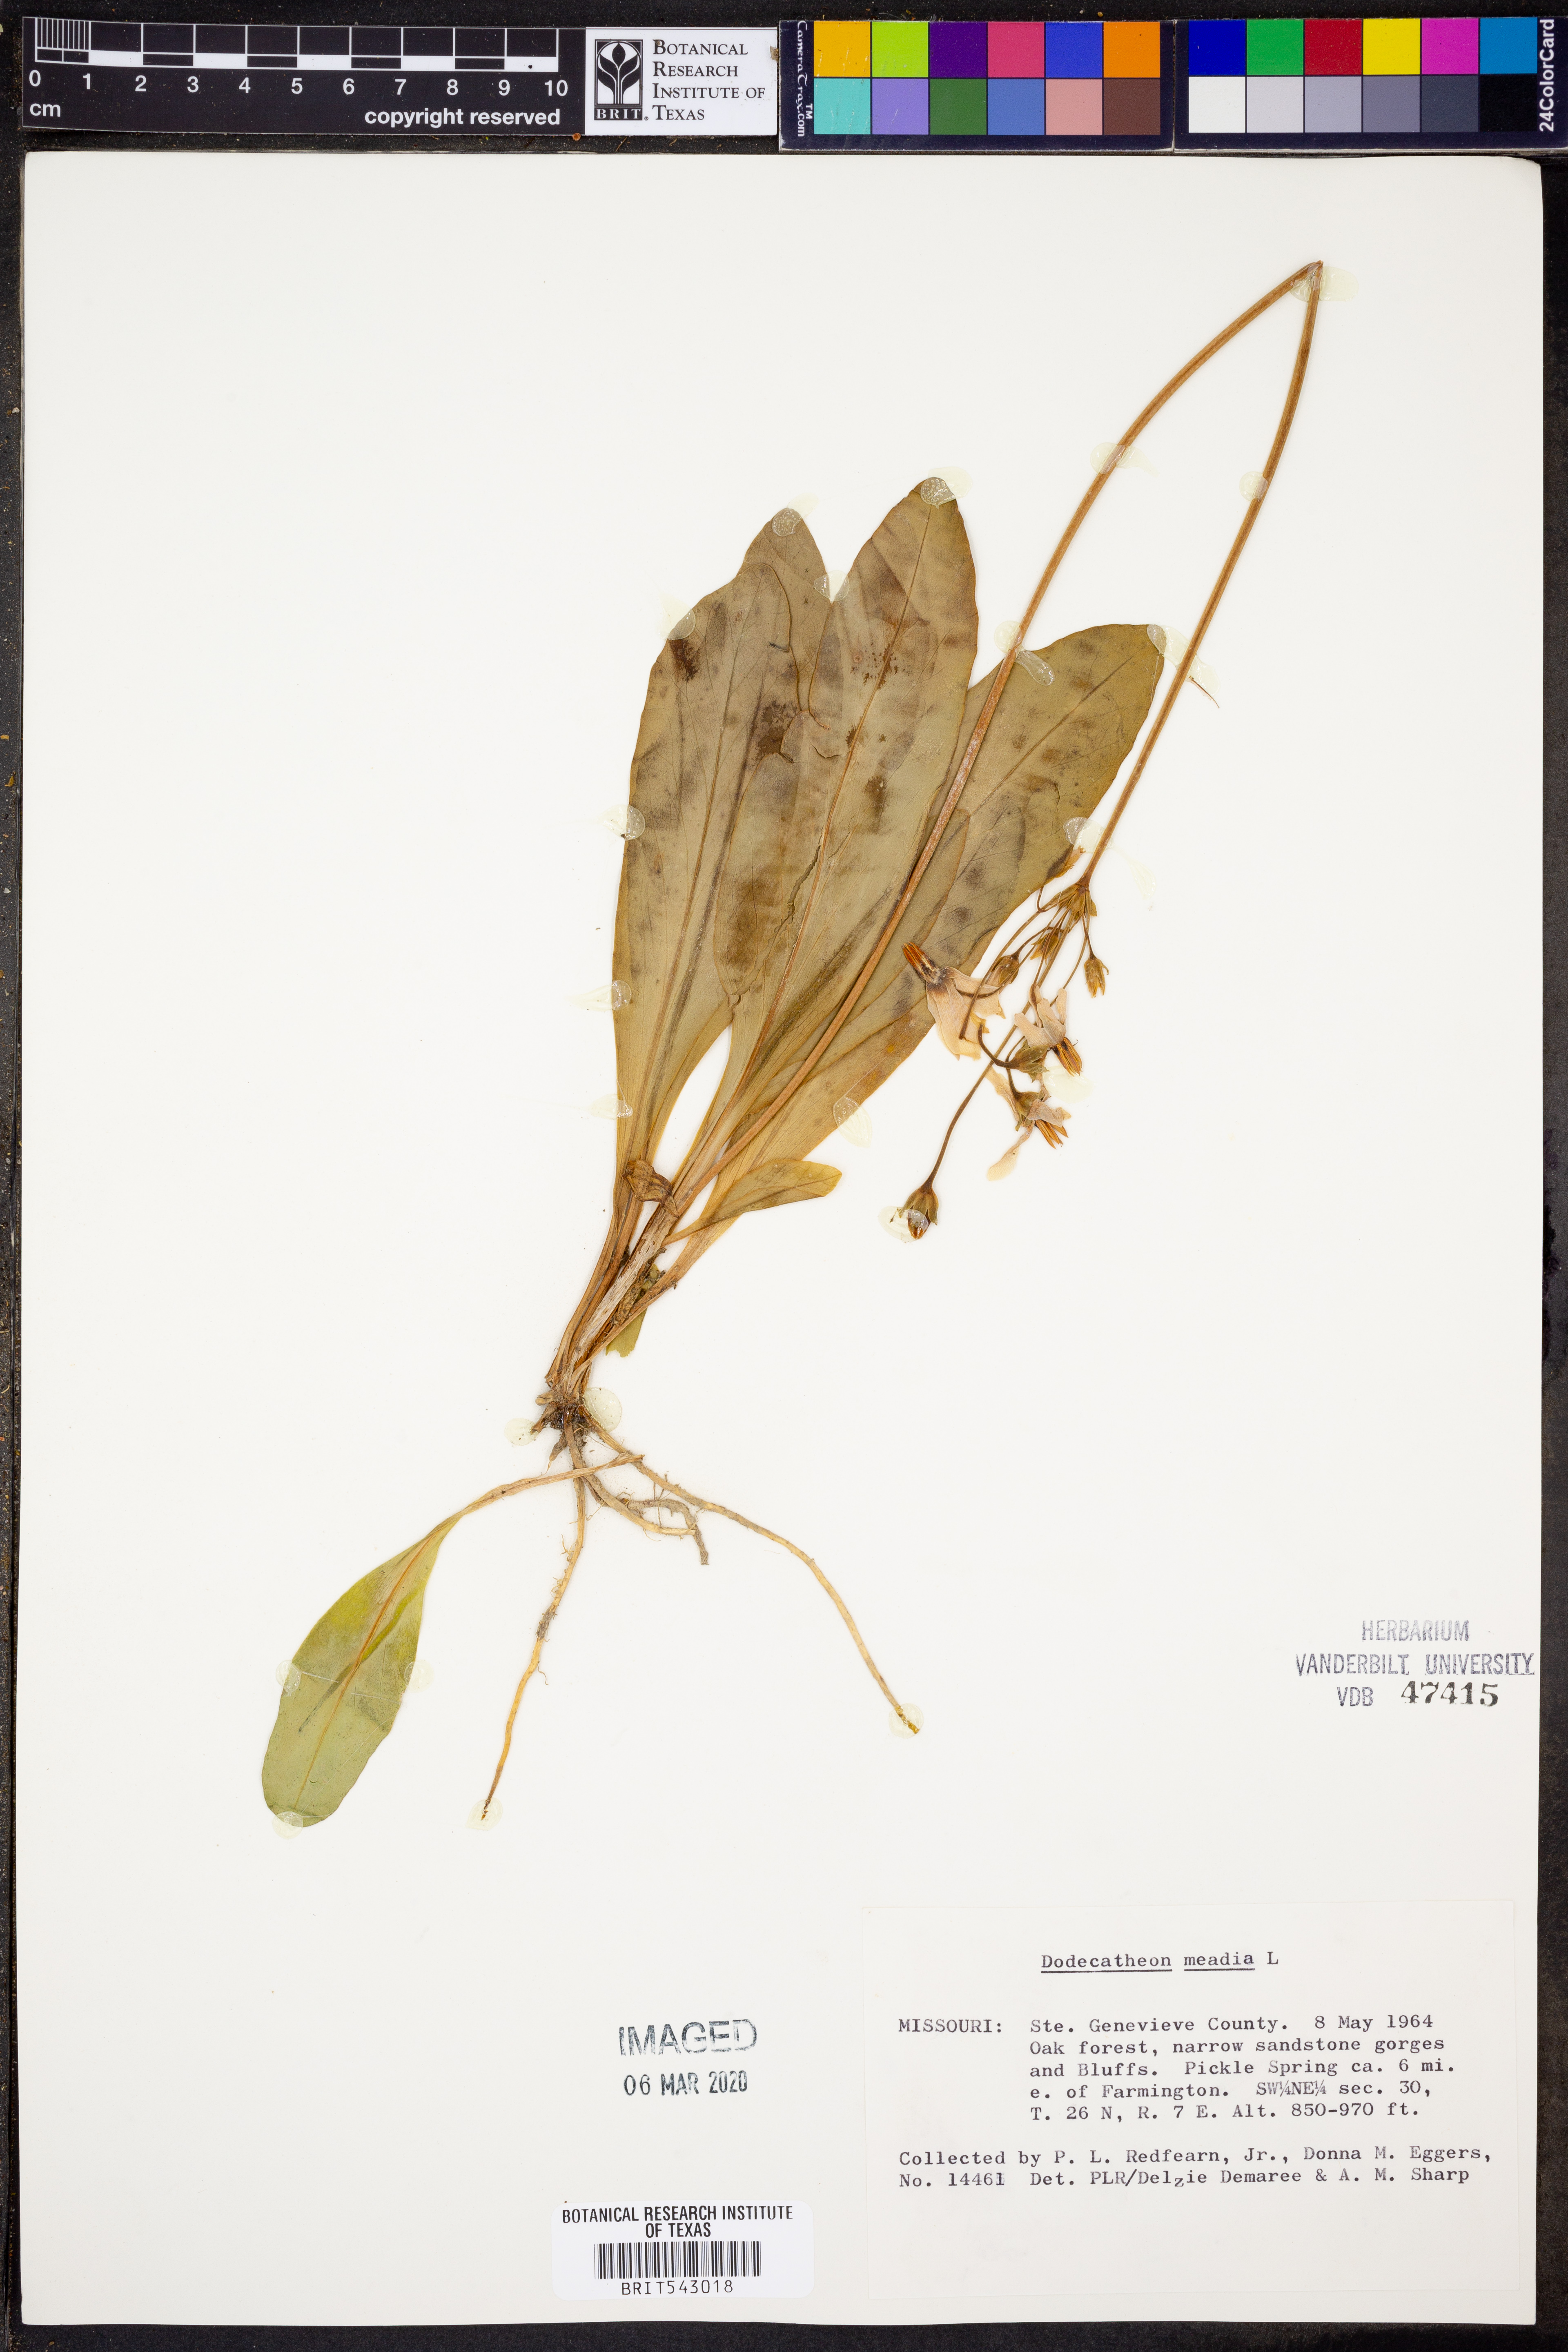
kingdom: Plantae
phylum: Tracheophyta
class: Magnoliopsida
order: Ericales
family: Primulaceae
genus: Dodecatheon
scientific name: Dodecatheon meadia
